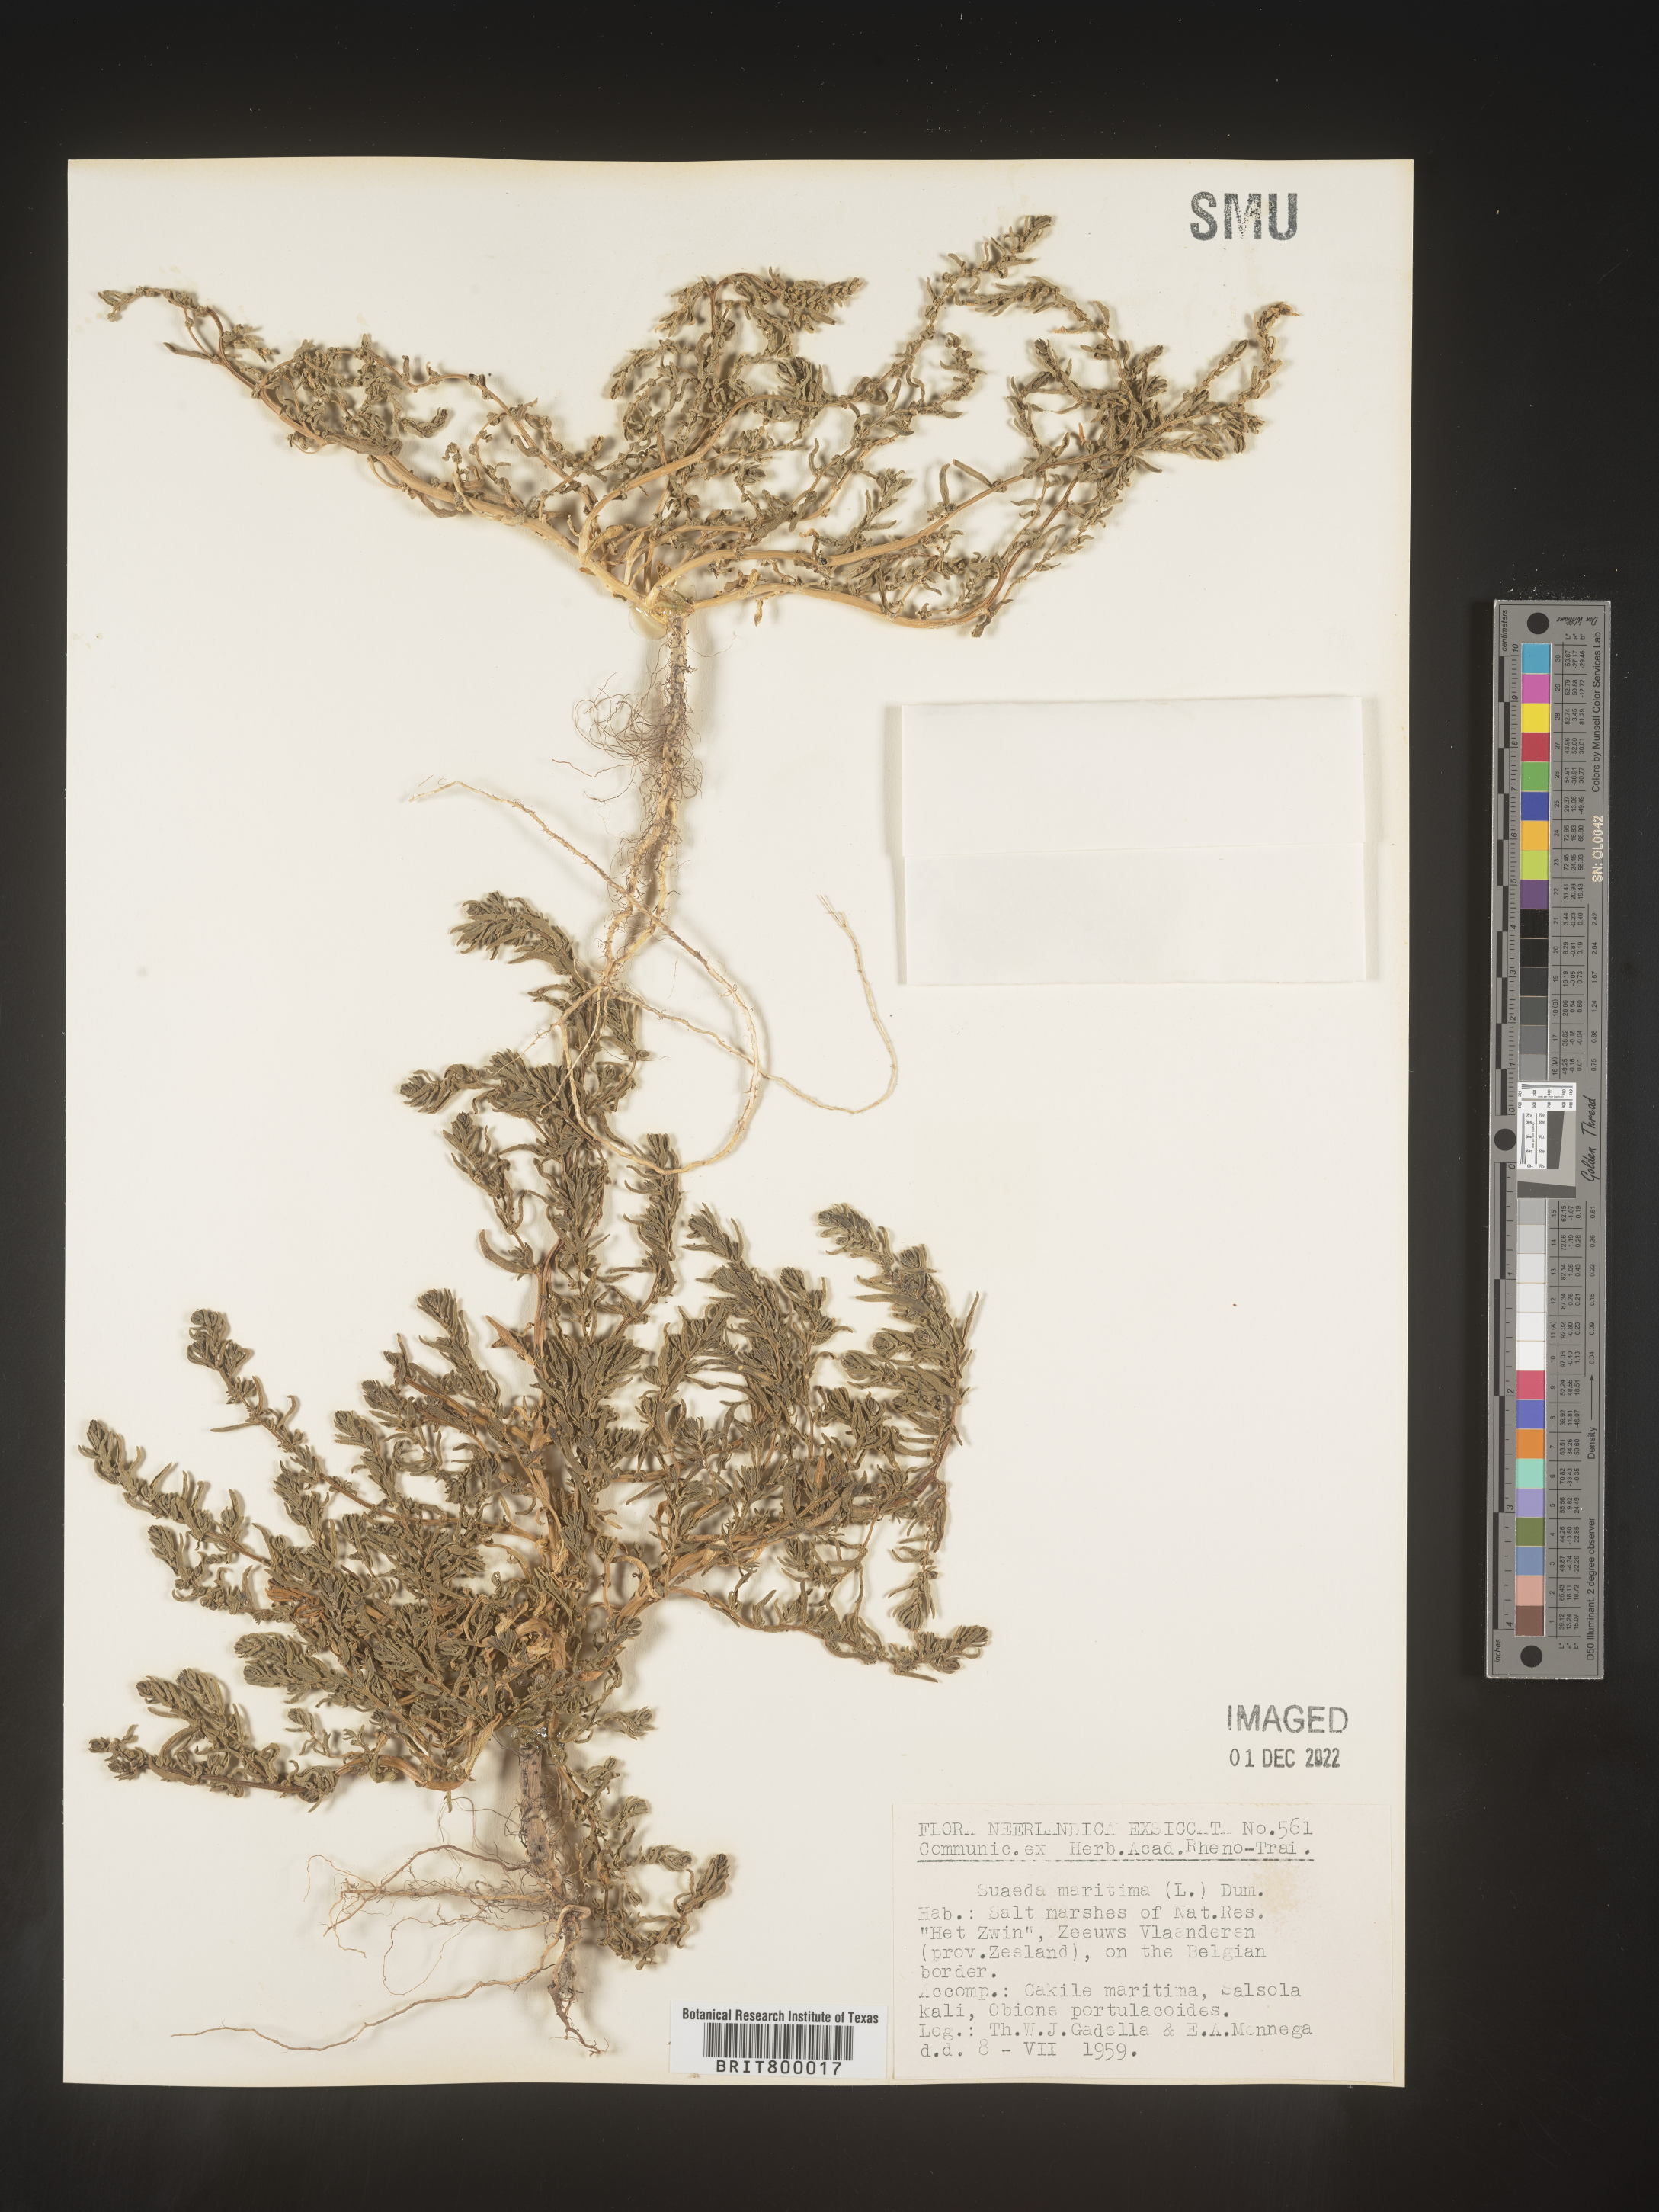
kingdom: Plantae
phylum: Tracheophyta
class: Magnoliopsida
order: Caryophyllales
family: Amaranthaceae
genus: Suaeda
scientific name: Suaeda
